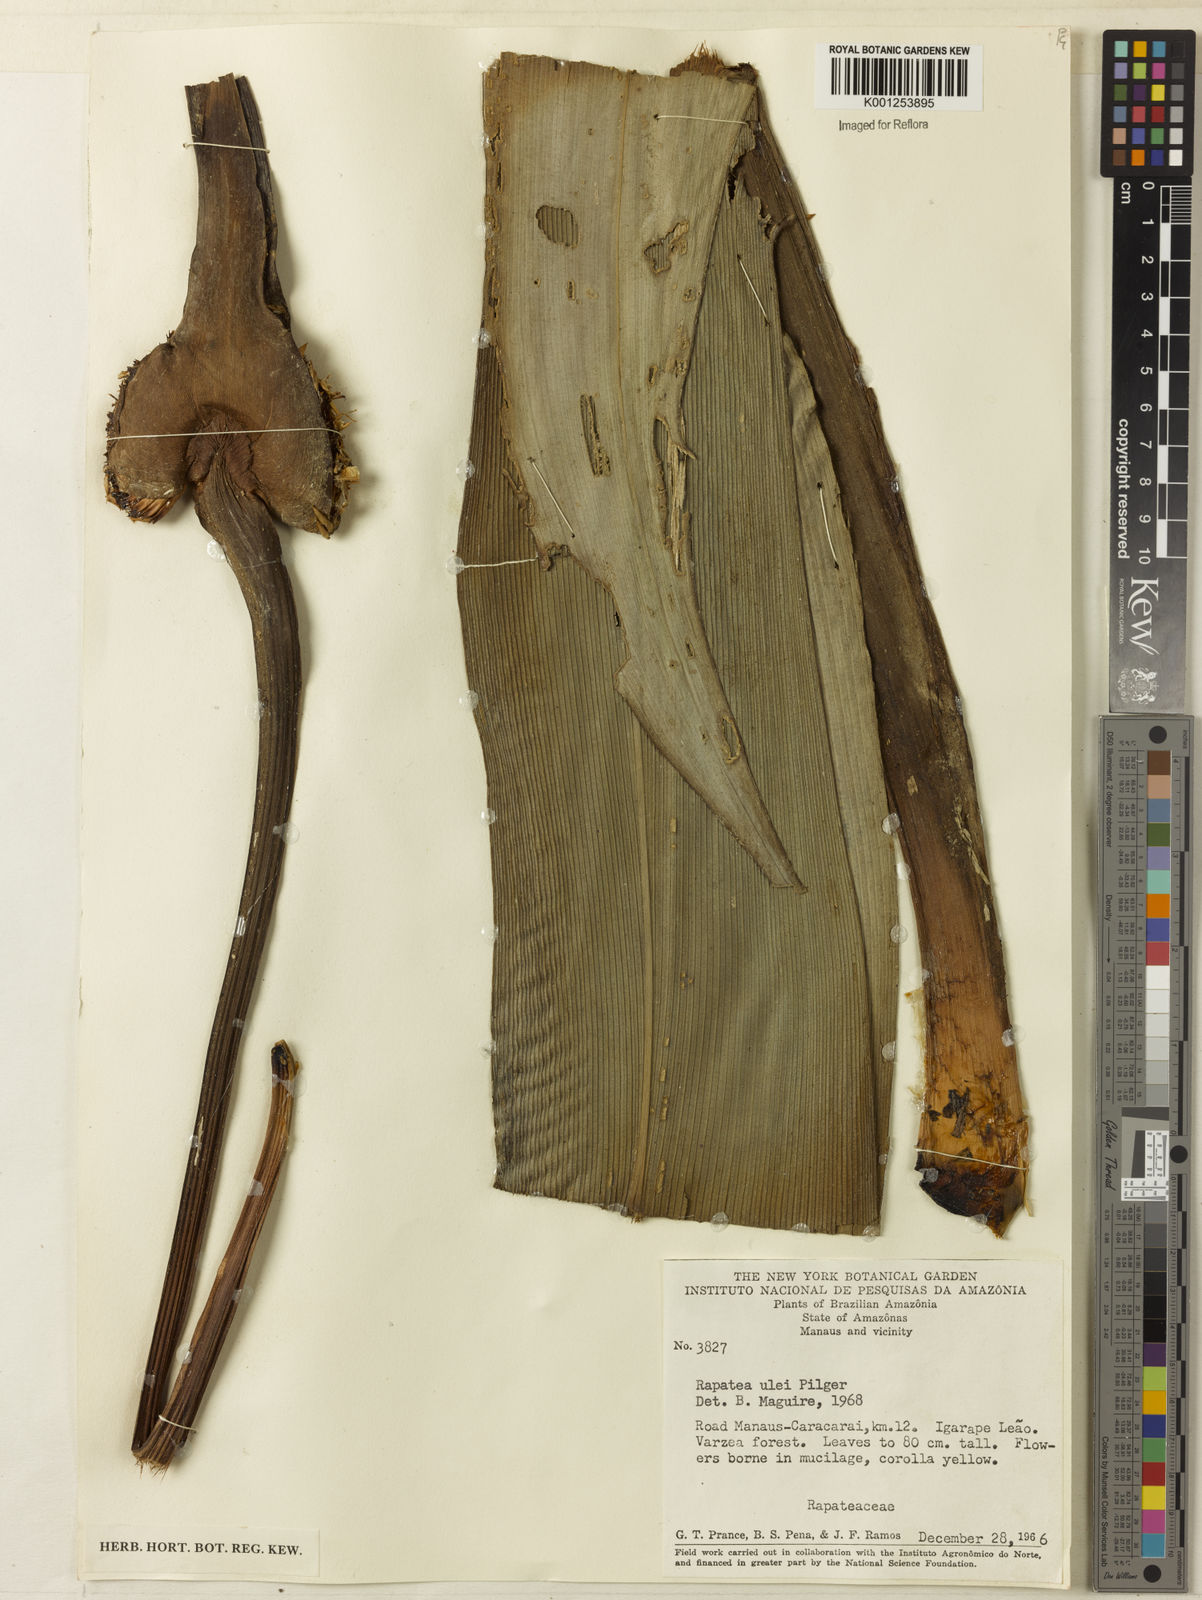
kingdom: Plantae
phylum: Tracheophyta
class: Liliopsida
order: Poales
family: Rapateaceae
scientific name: Rapateaceae
